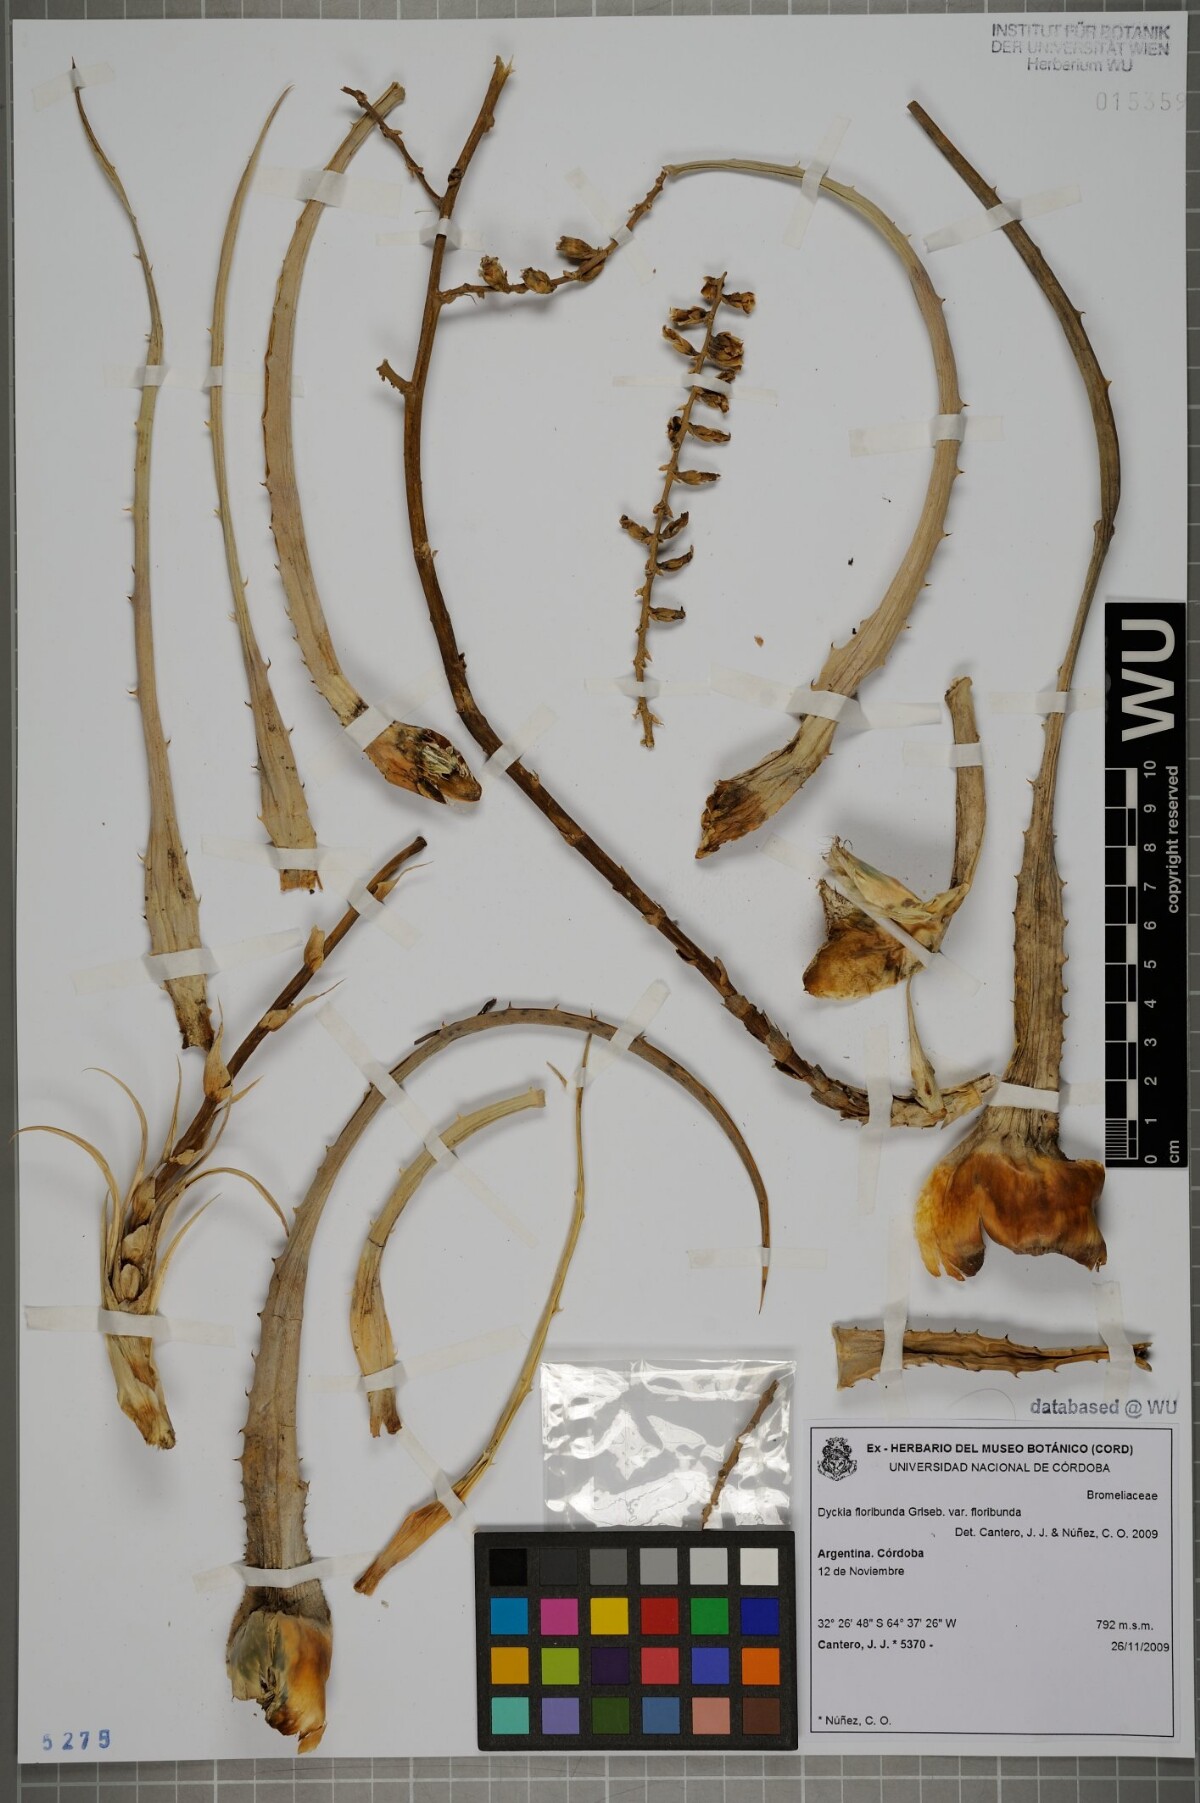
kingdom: Plantae
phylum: Tracheophyta
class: Liliopsida
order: Poales
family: Bromeliaceae
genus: Dyckia
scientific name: Dyckia floribunda
